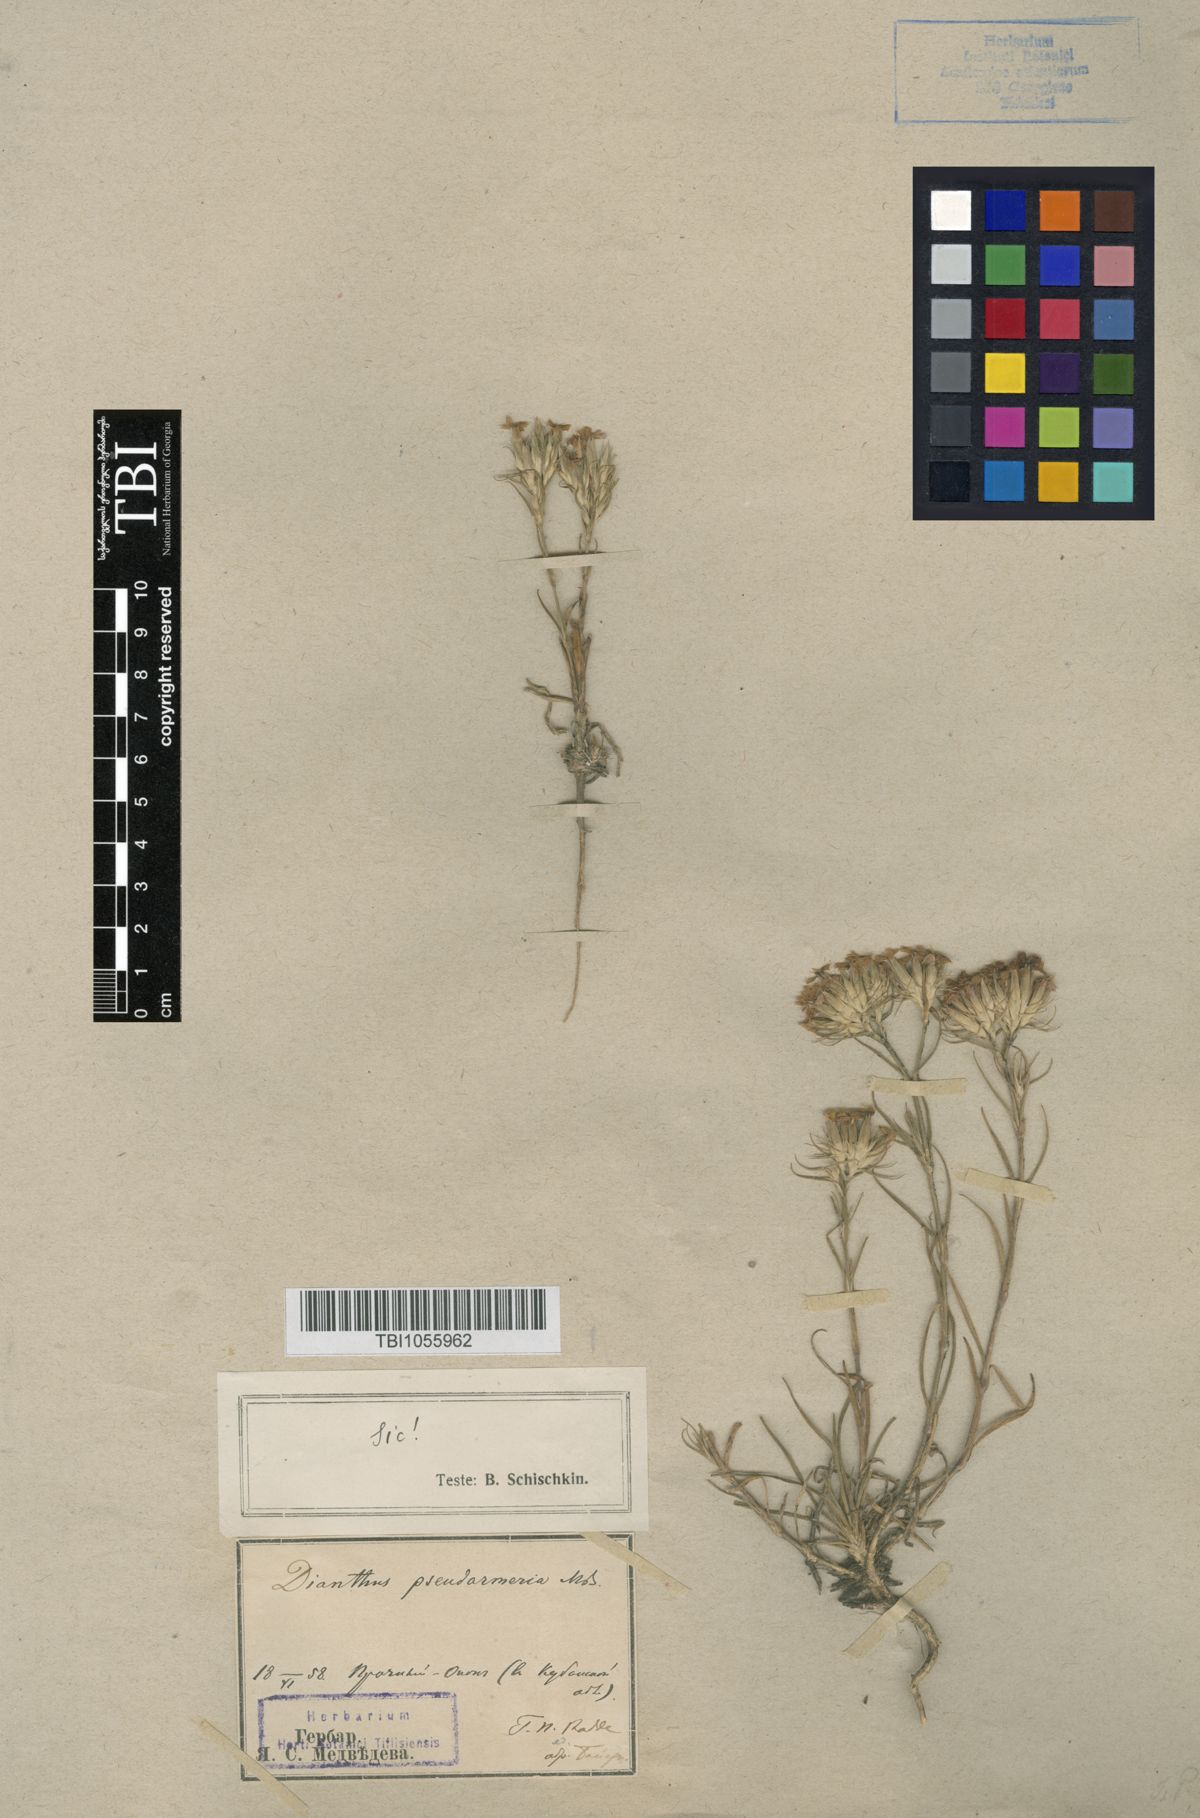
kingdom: Plantae
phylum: Tracheophyta
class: Magnoliopsida
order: Caryophyllales
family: Caryophyllaceae
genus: Dianthus
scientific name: Dianthus pseudarmeria
